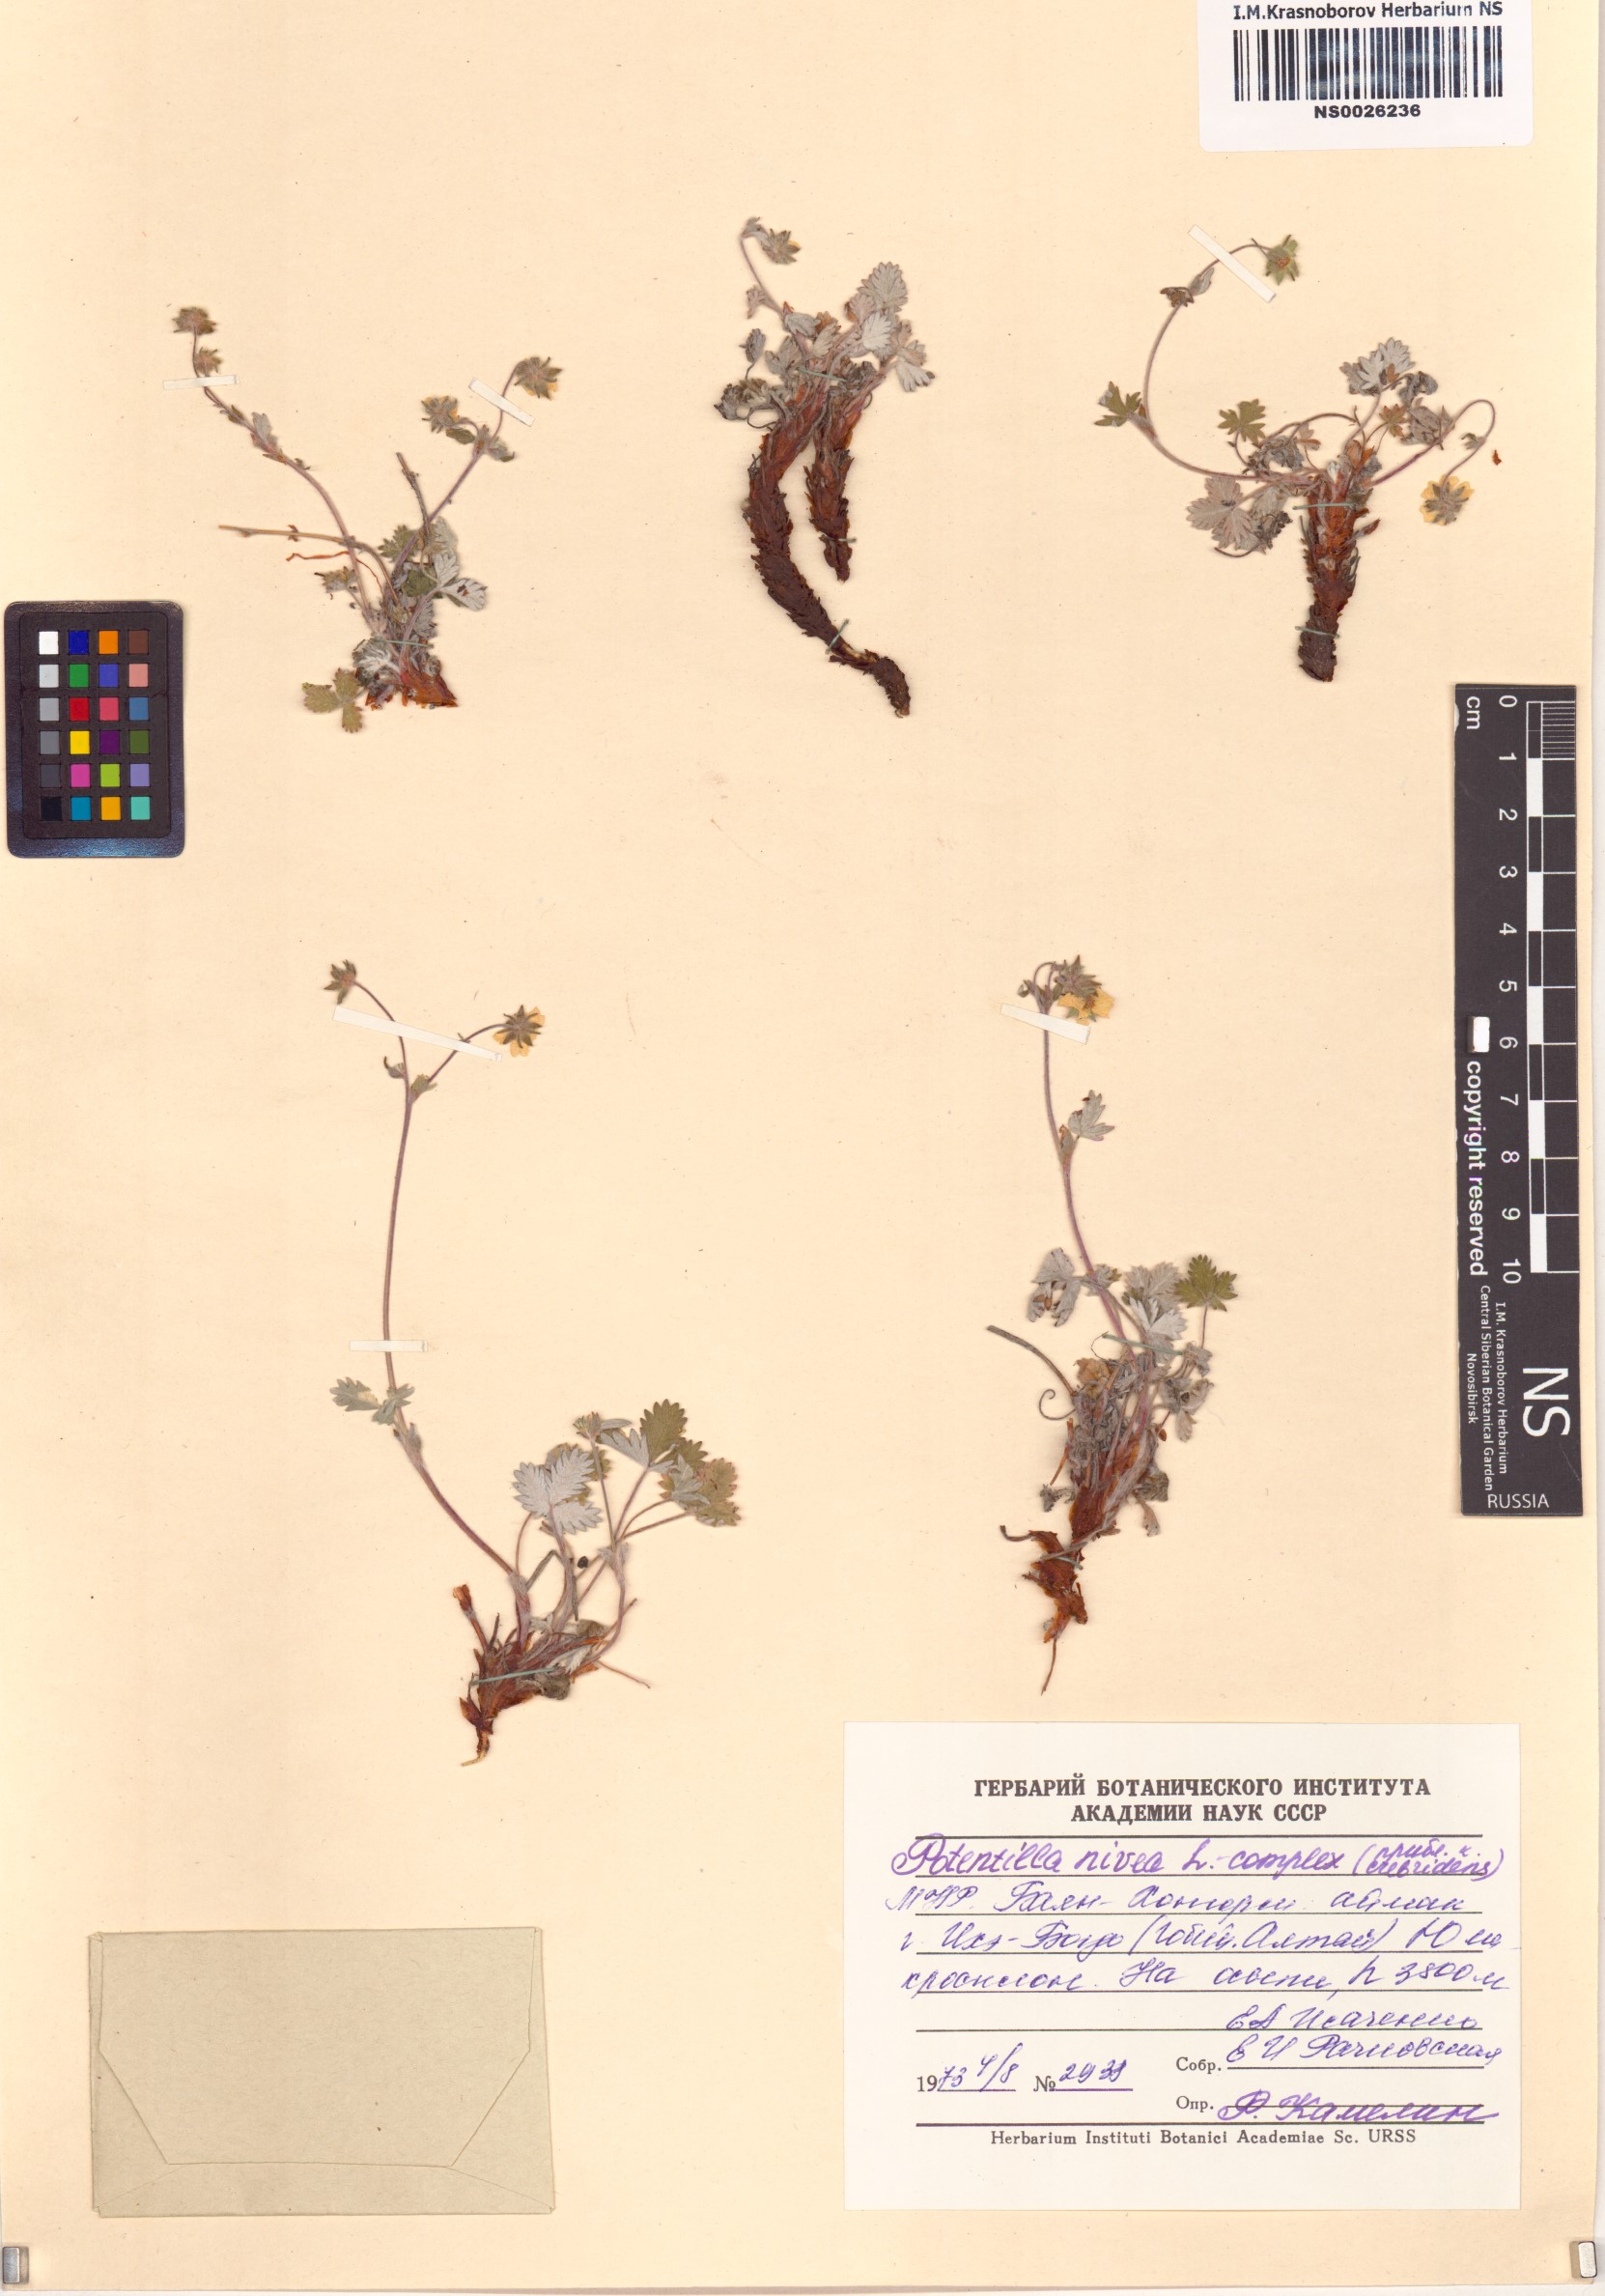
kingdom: Plantae
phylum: Tracheophyta
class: Magnoliopsida
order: Rosales
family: Rosaceae
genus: Potentilla
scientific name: Potentilla nivea
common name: Snow cinquefoil
